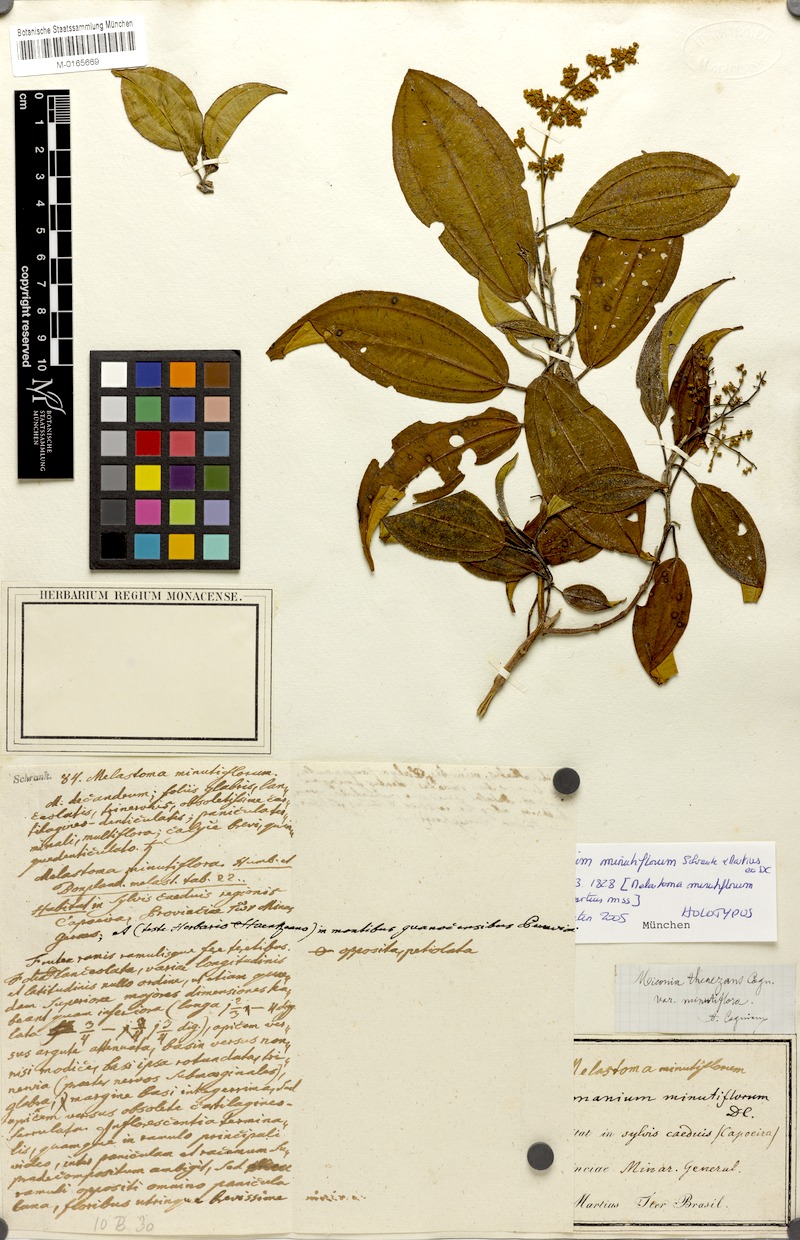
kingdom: Plantae
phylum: Tracheophyta
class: Magnoliopsida
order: Myrtales
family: Melastomataceae
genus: Miconia
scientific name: Miconia theizans
